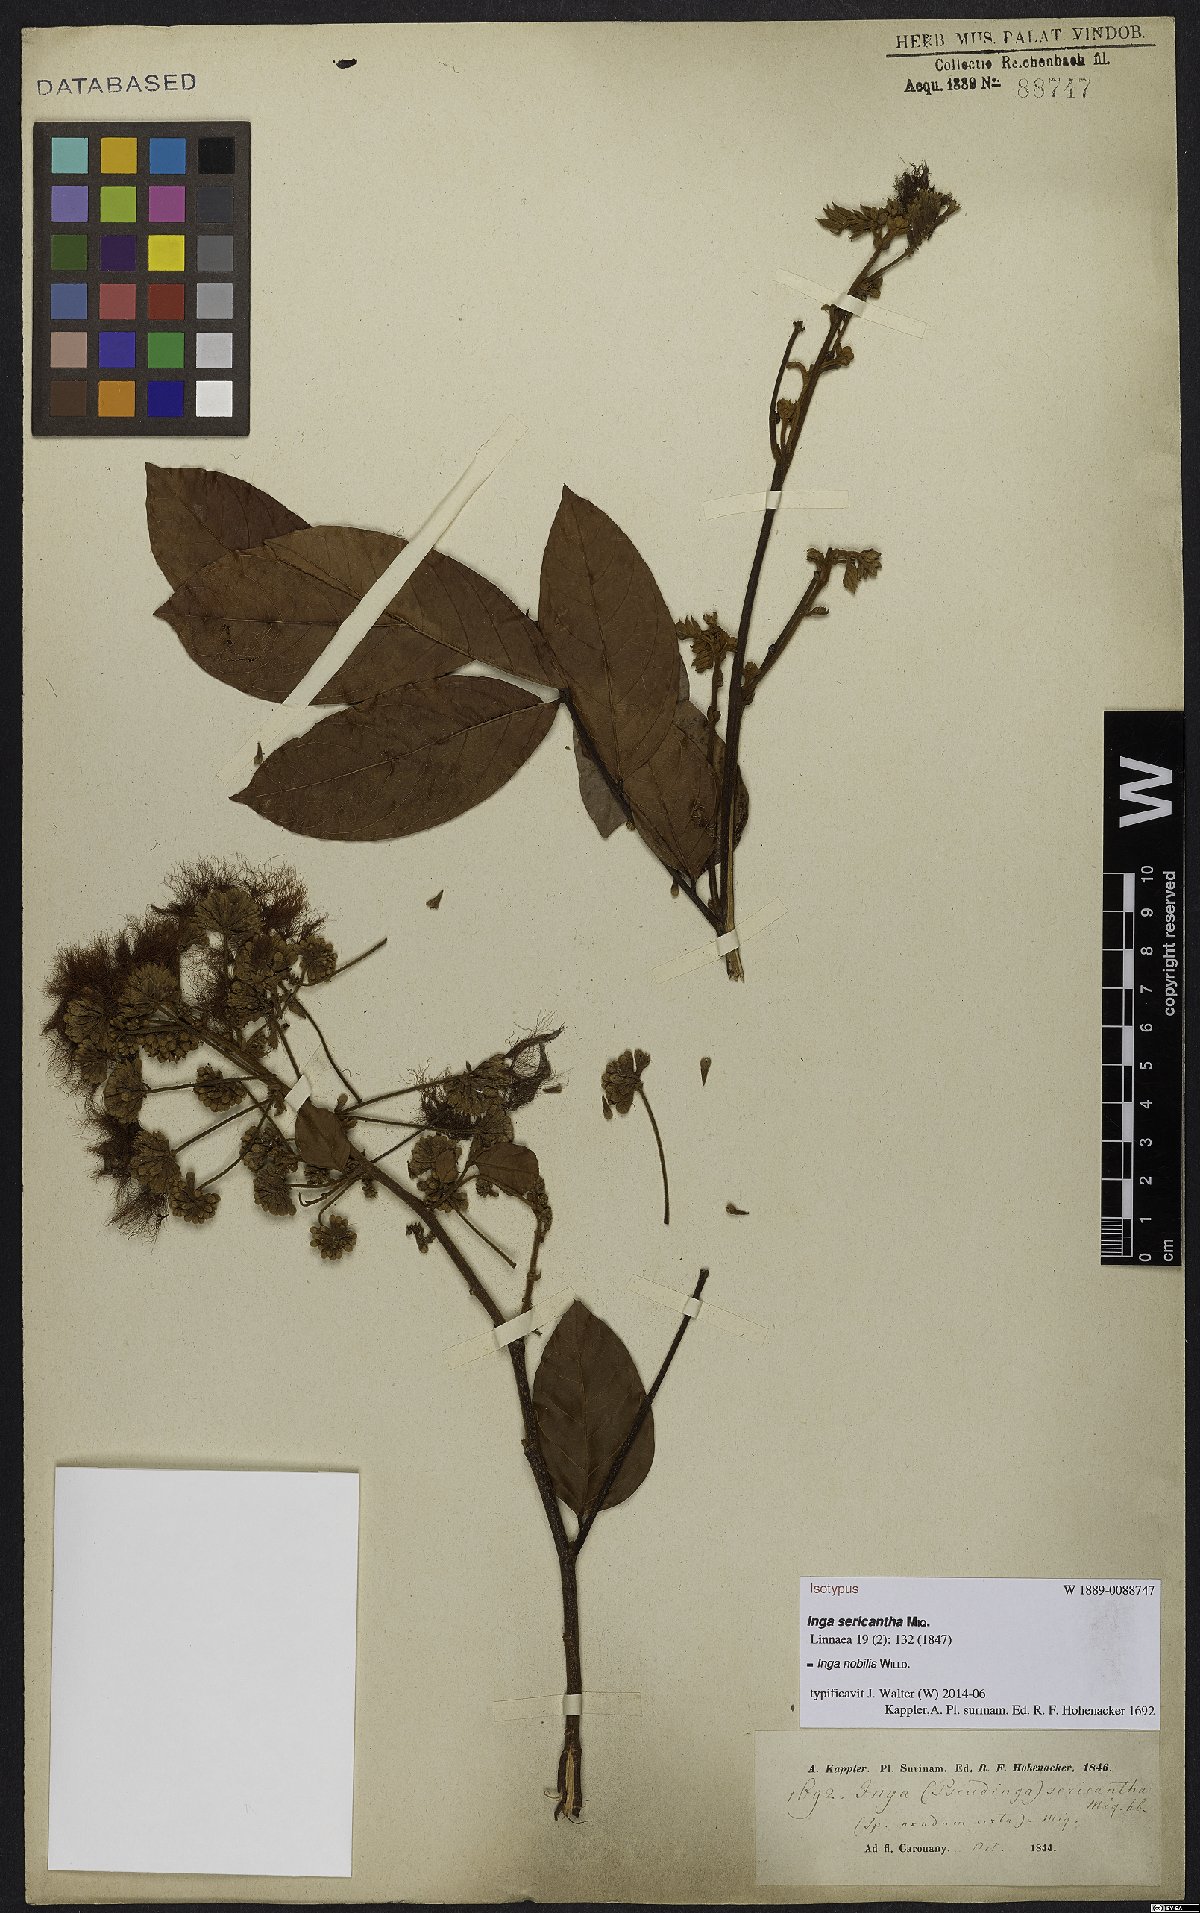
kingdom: Plantae
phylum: Tracheophyta
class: Magnoliopsida
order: Fabales
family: Fabaceae
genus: Inga
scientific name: Inga nobilis
